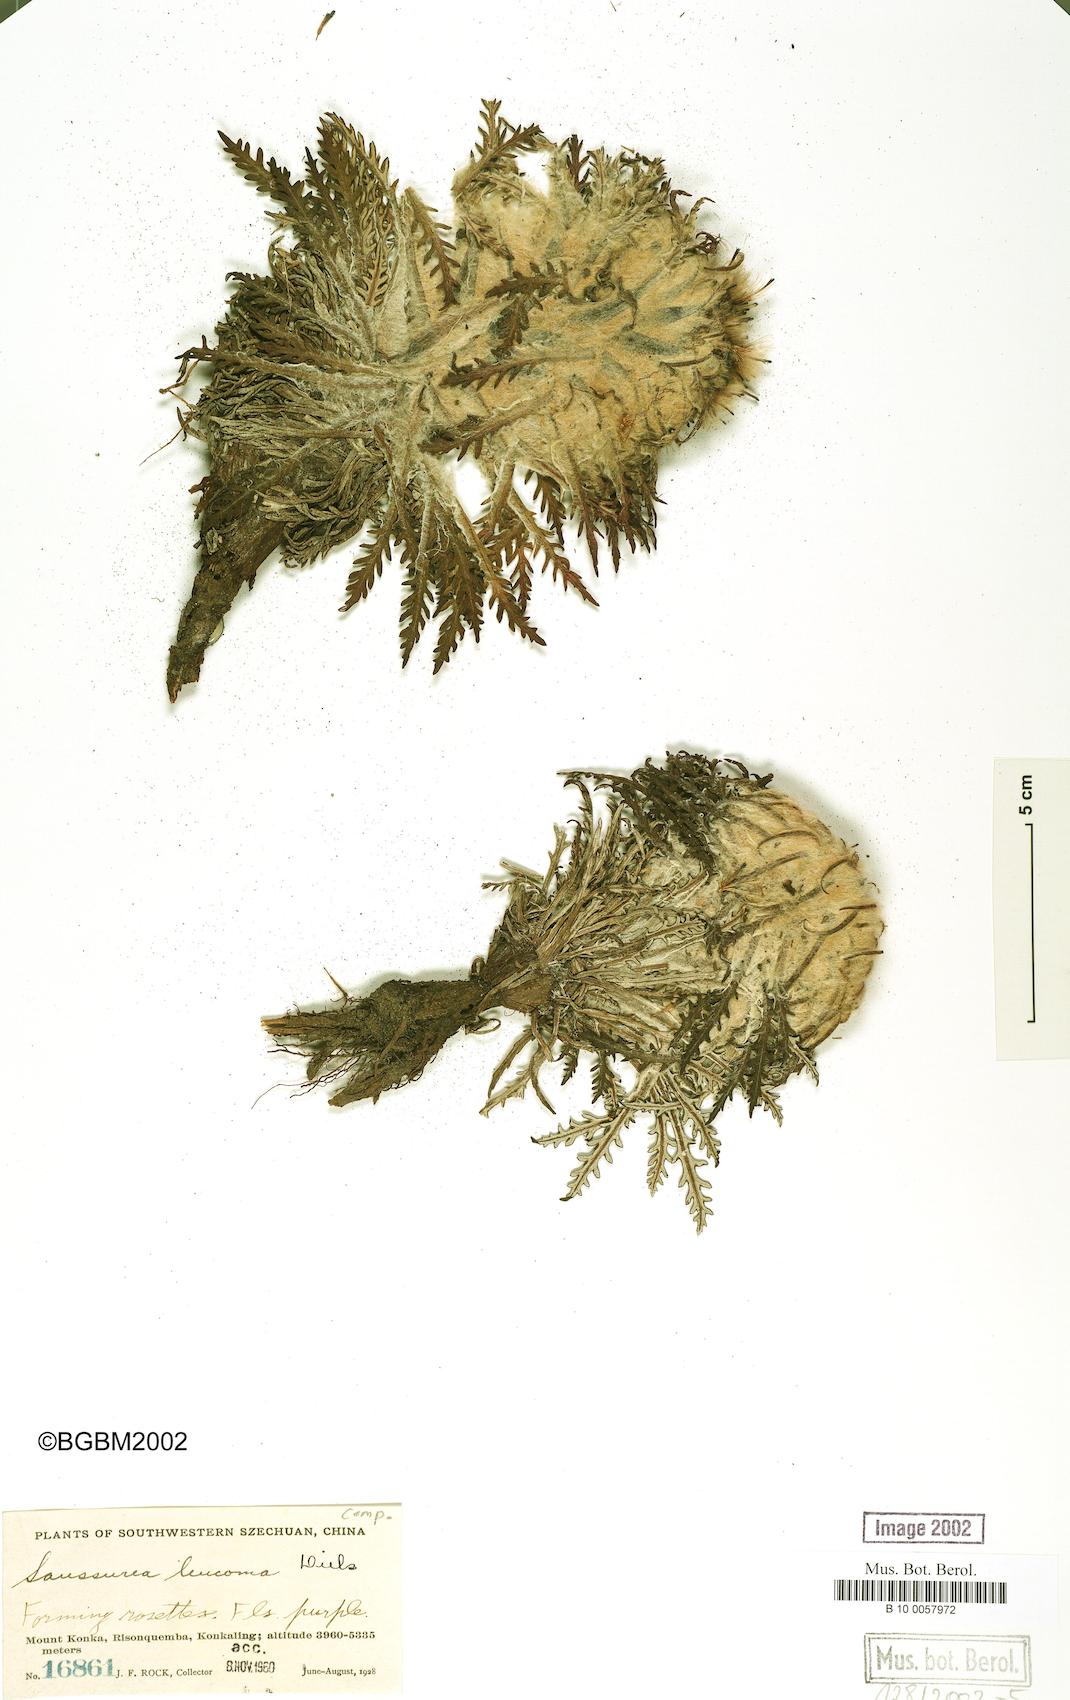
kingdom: Plantae
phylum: Tracheophyta
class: Magnoliopsida
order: Asterales
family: Asteraceae
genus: Saussurea
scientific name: Saussurea leucoma
